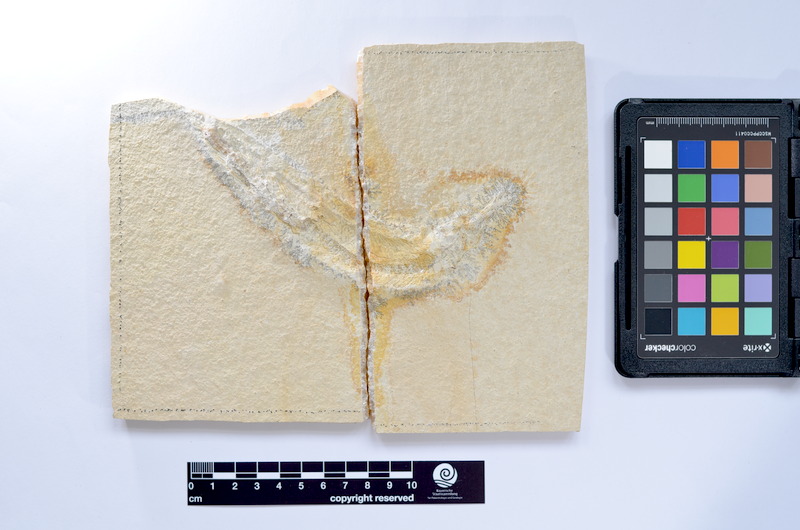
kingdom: Animalia
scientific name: Animalia
